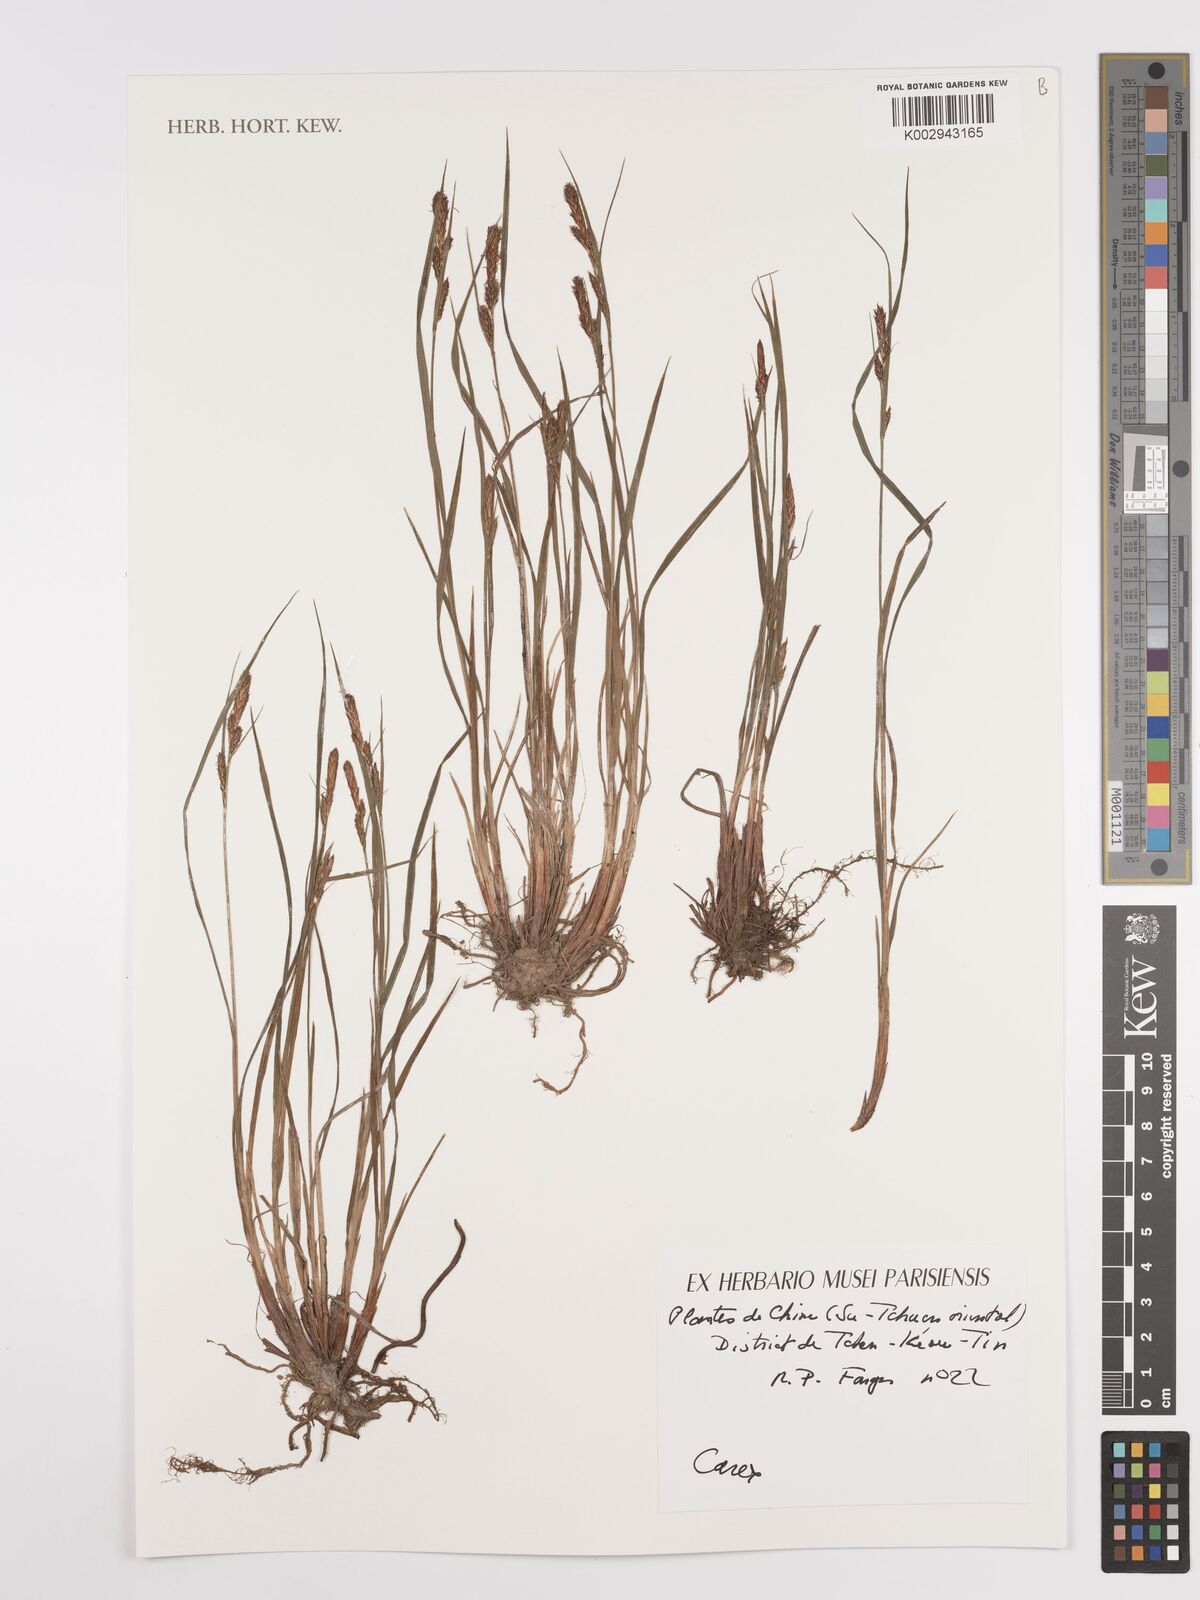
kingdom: Plantae
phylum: Tracheophyta
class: Liliopsida
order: Poales
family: Cyperaceae
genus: Carex
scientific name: Carex
